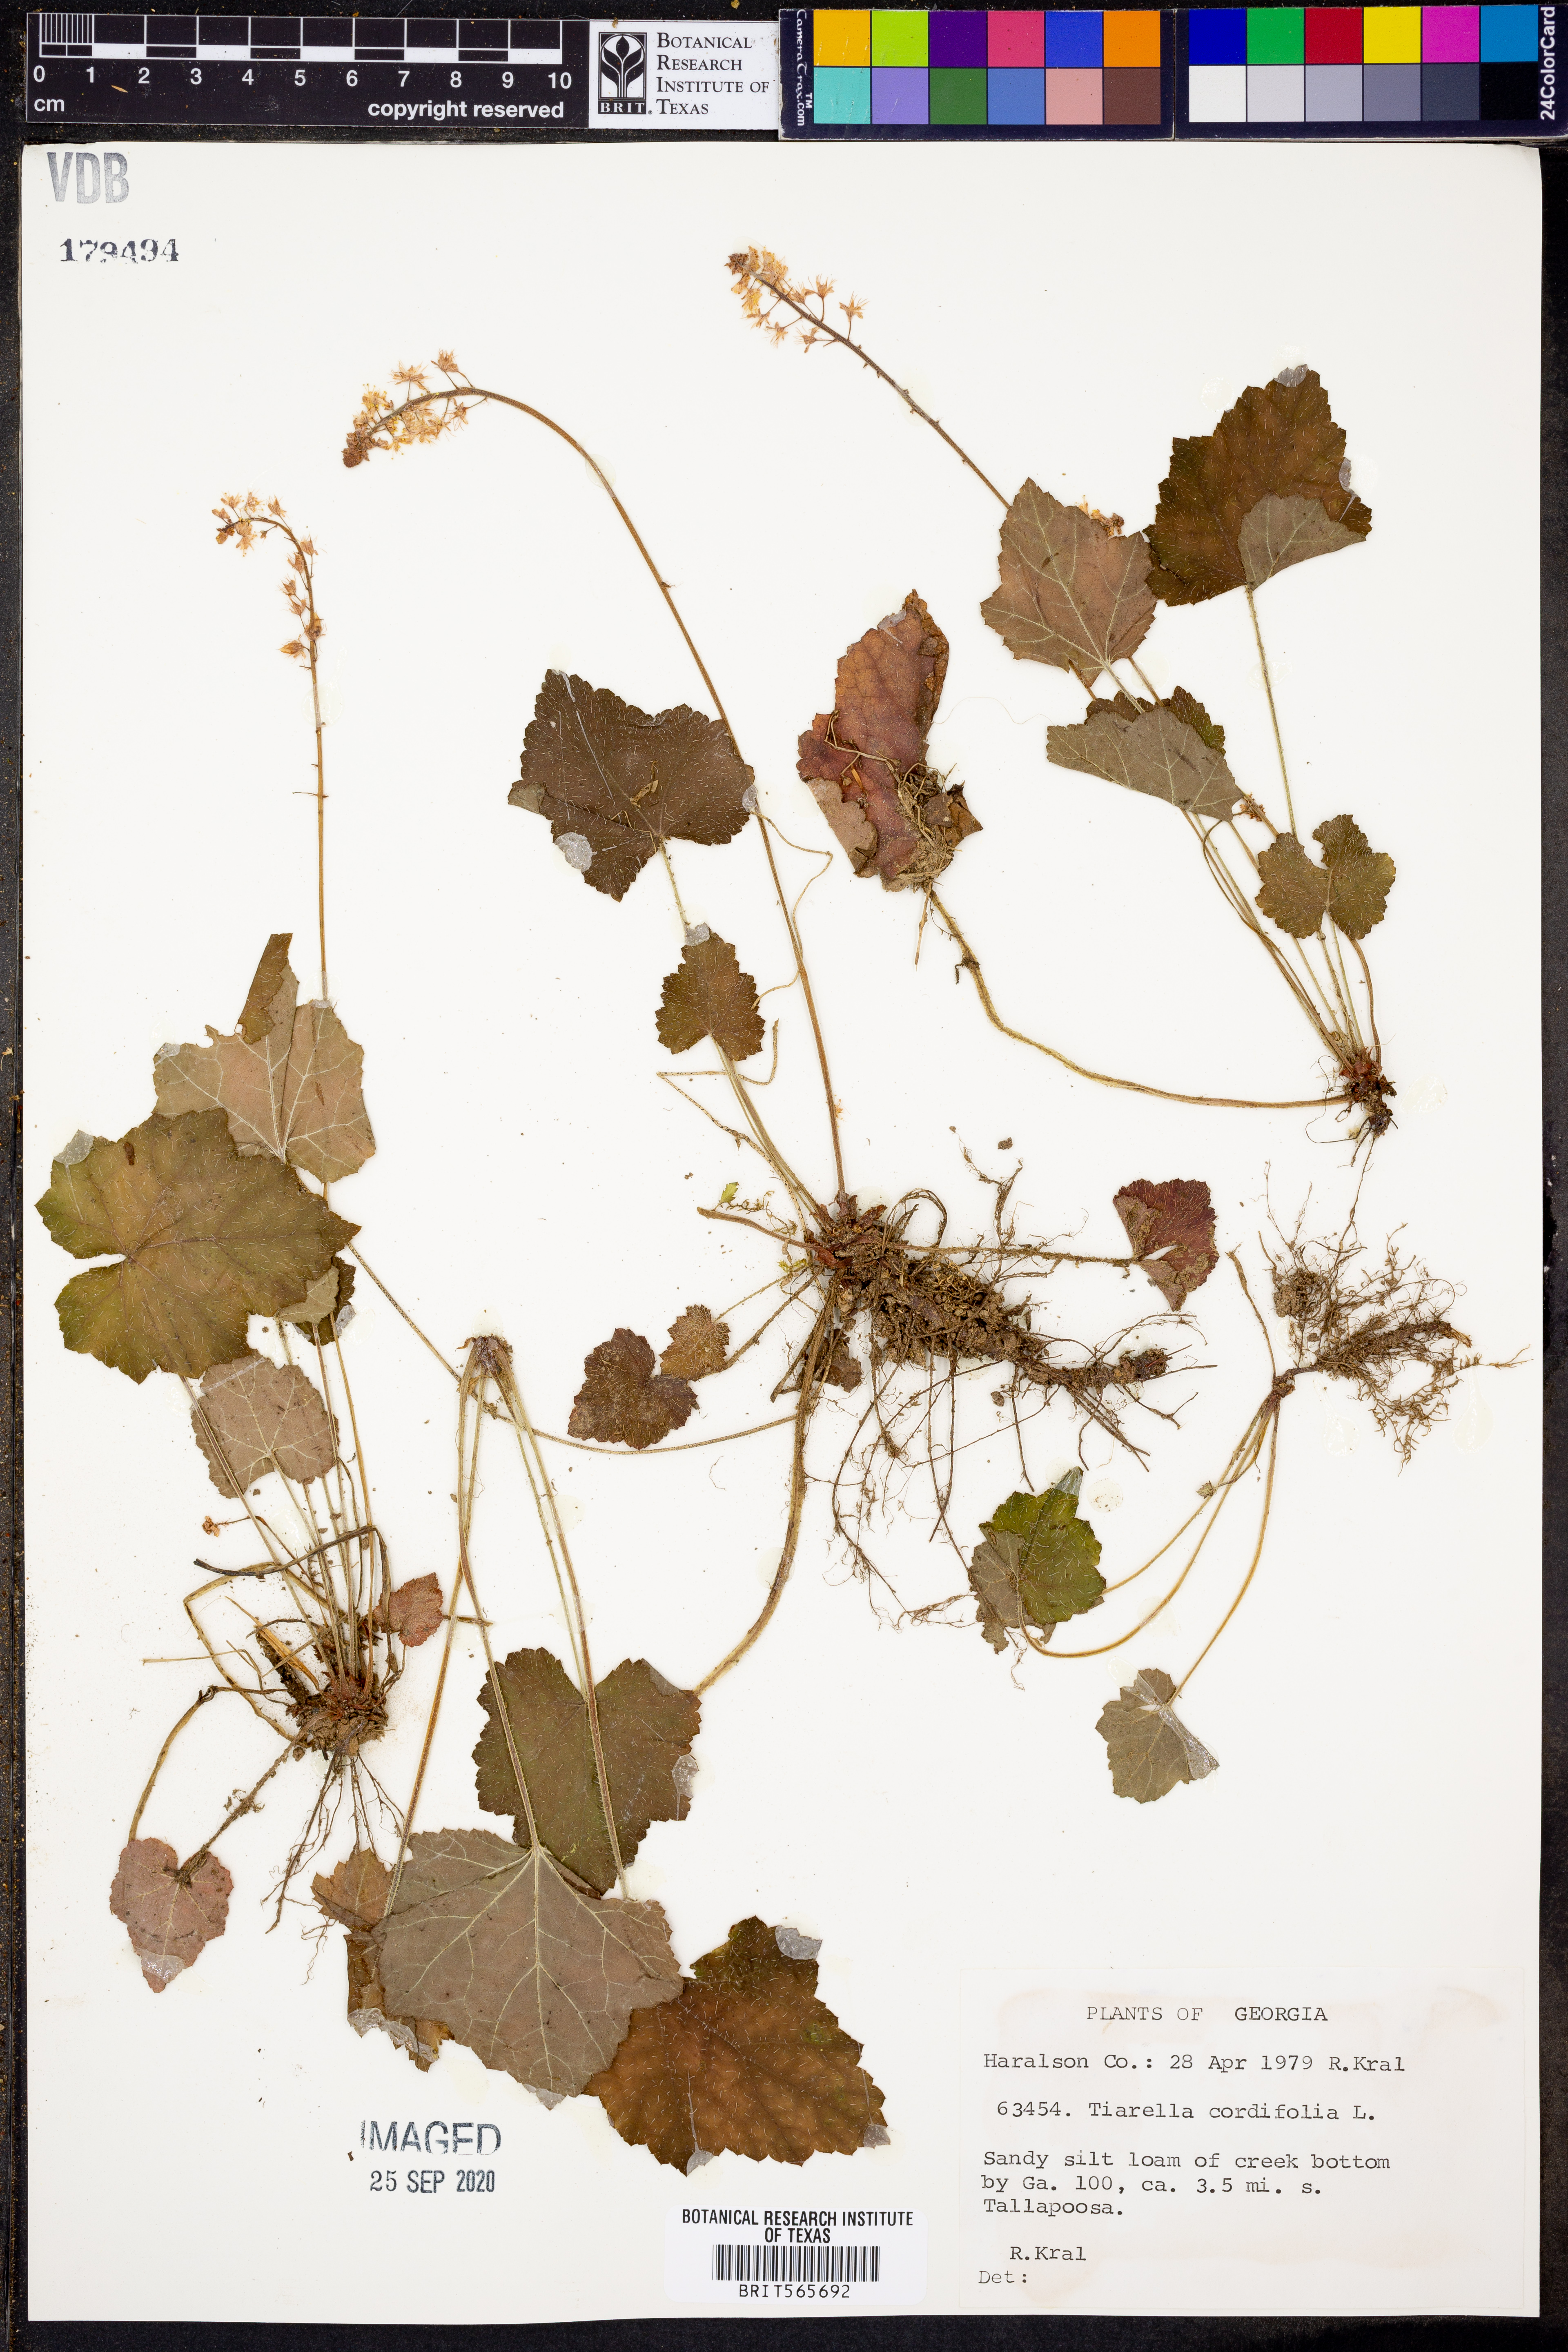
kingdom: Plantae
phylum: Tracheophyta
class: Magnoliopsida
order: Saxifragales
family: Saxifragaceae
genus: Tiarella
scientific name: Tiarella cordifolia
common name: Foamflower
